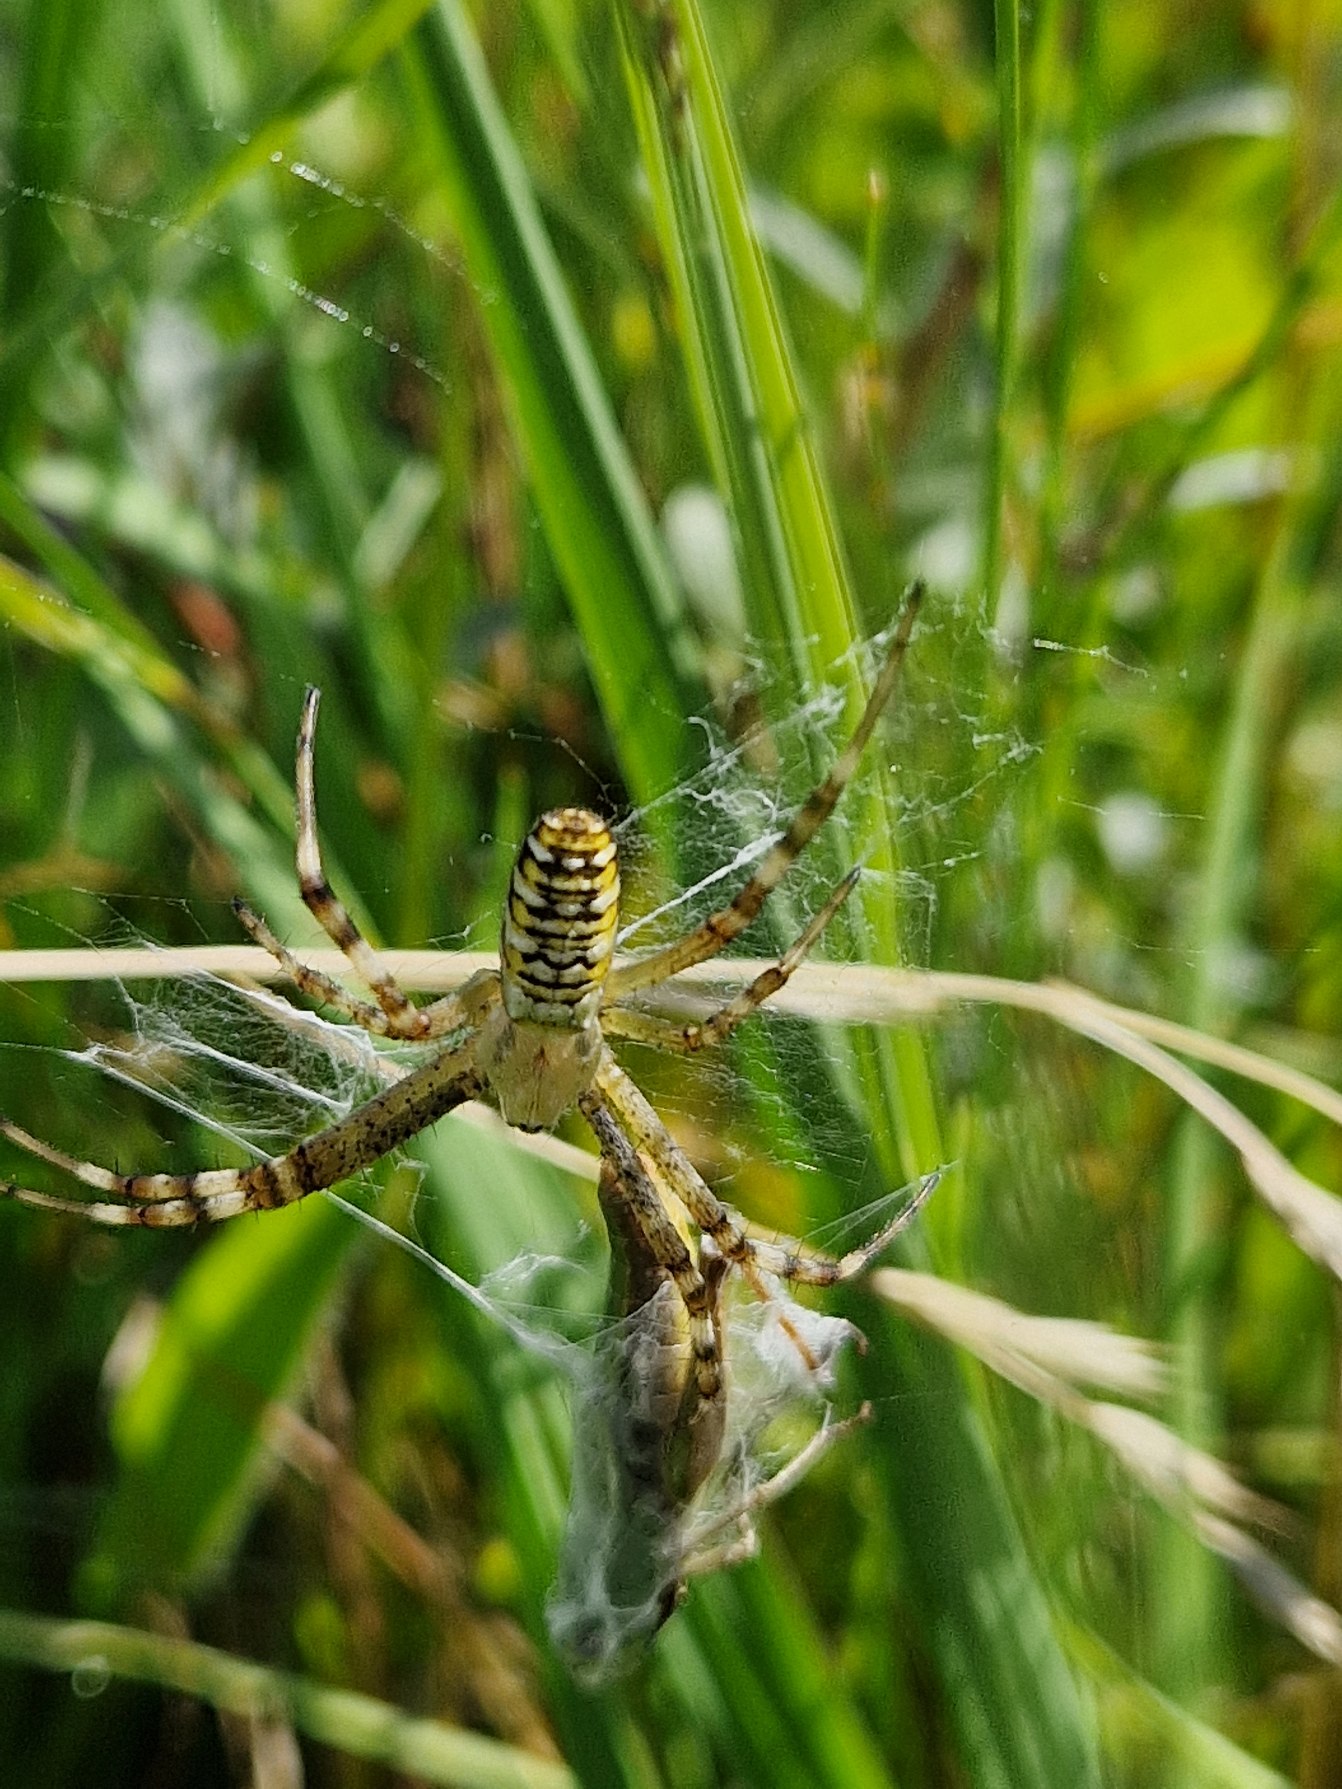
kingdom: Animalia
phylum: Arthropoda
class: Arachnida
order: Araneae
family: Araneidae
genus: Argiope
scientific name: Argiope bruennichi
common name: Hvepseedderkop
